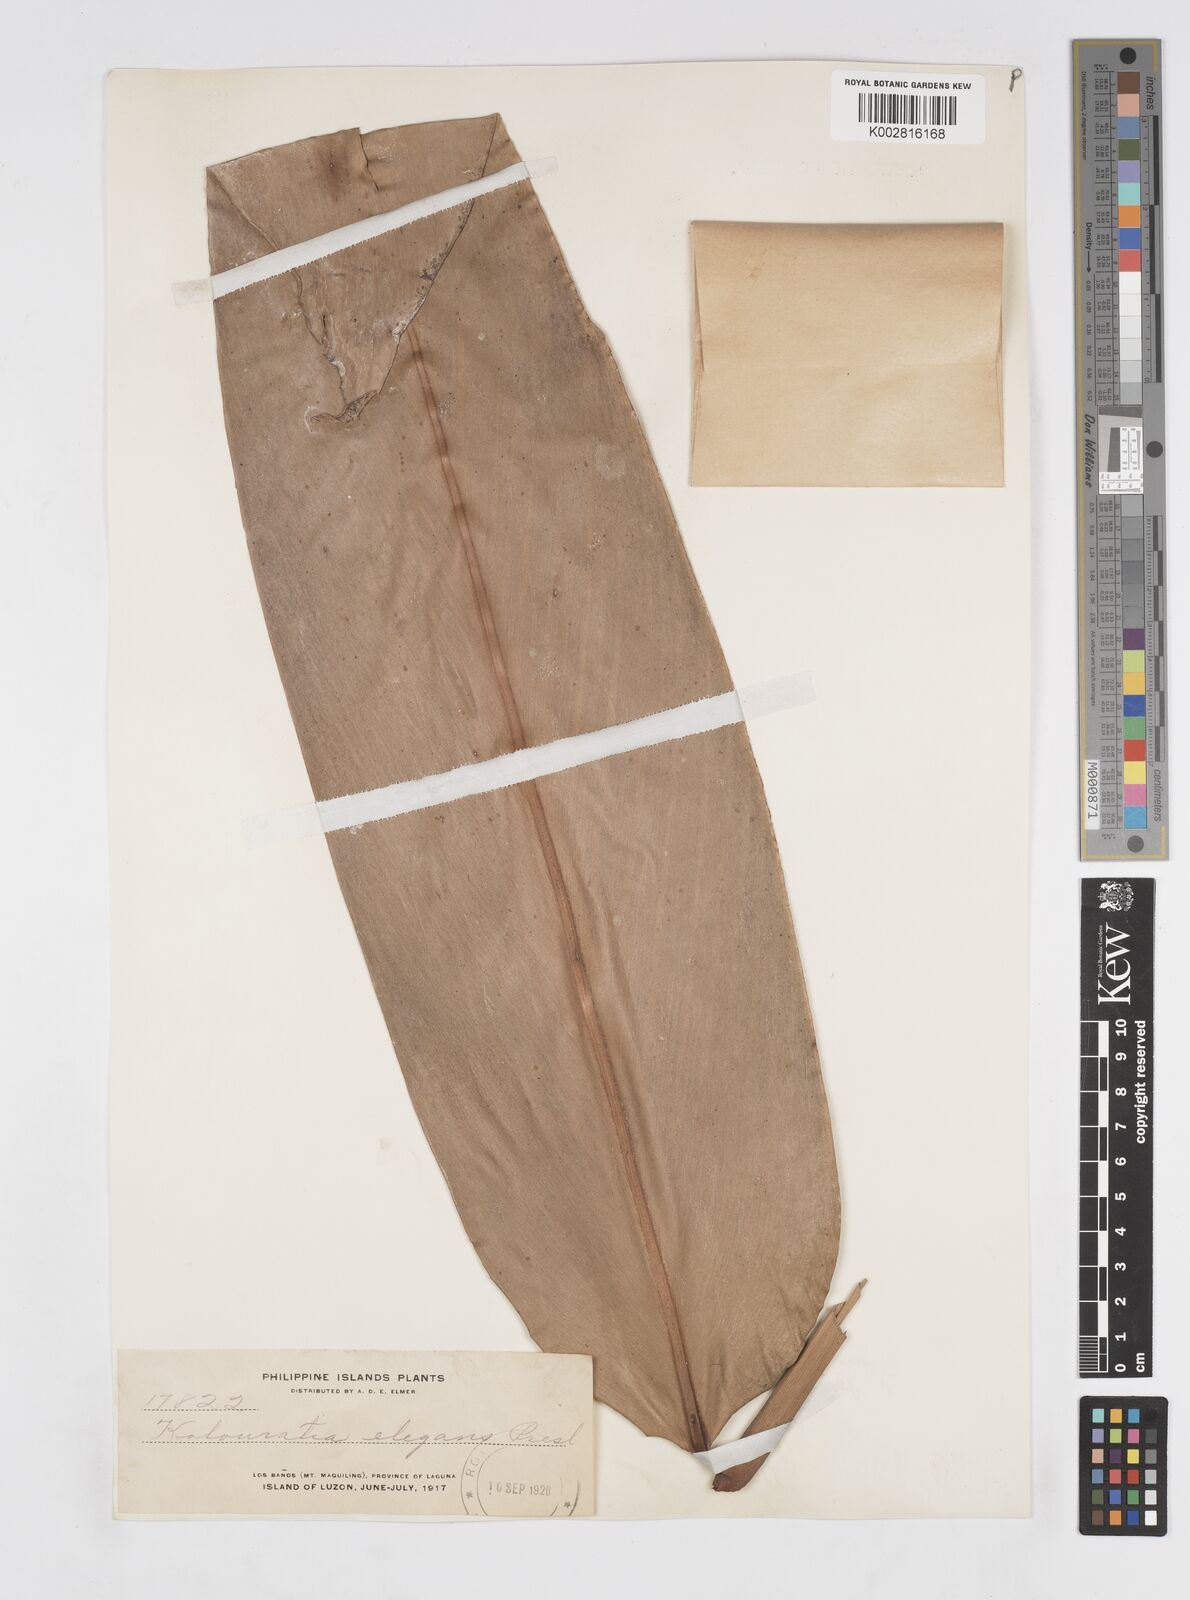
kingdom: Plantae
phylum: Tracheophyta
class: Liliopsida
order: Zingiberales
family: Zingiberaceae
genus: Alpinia
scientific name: Alpinia elegans
